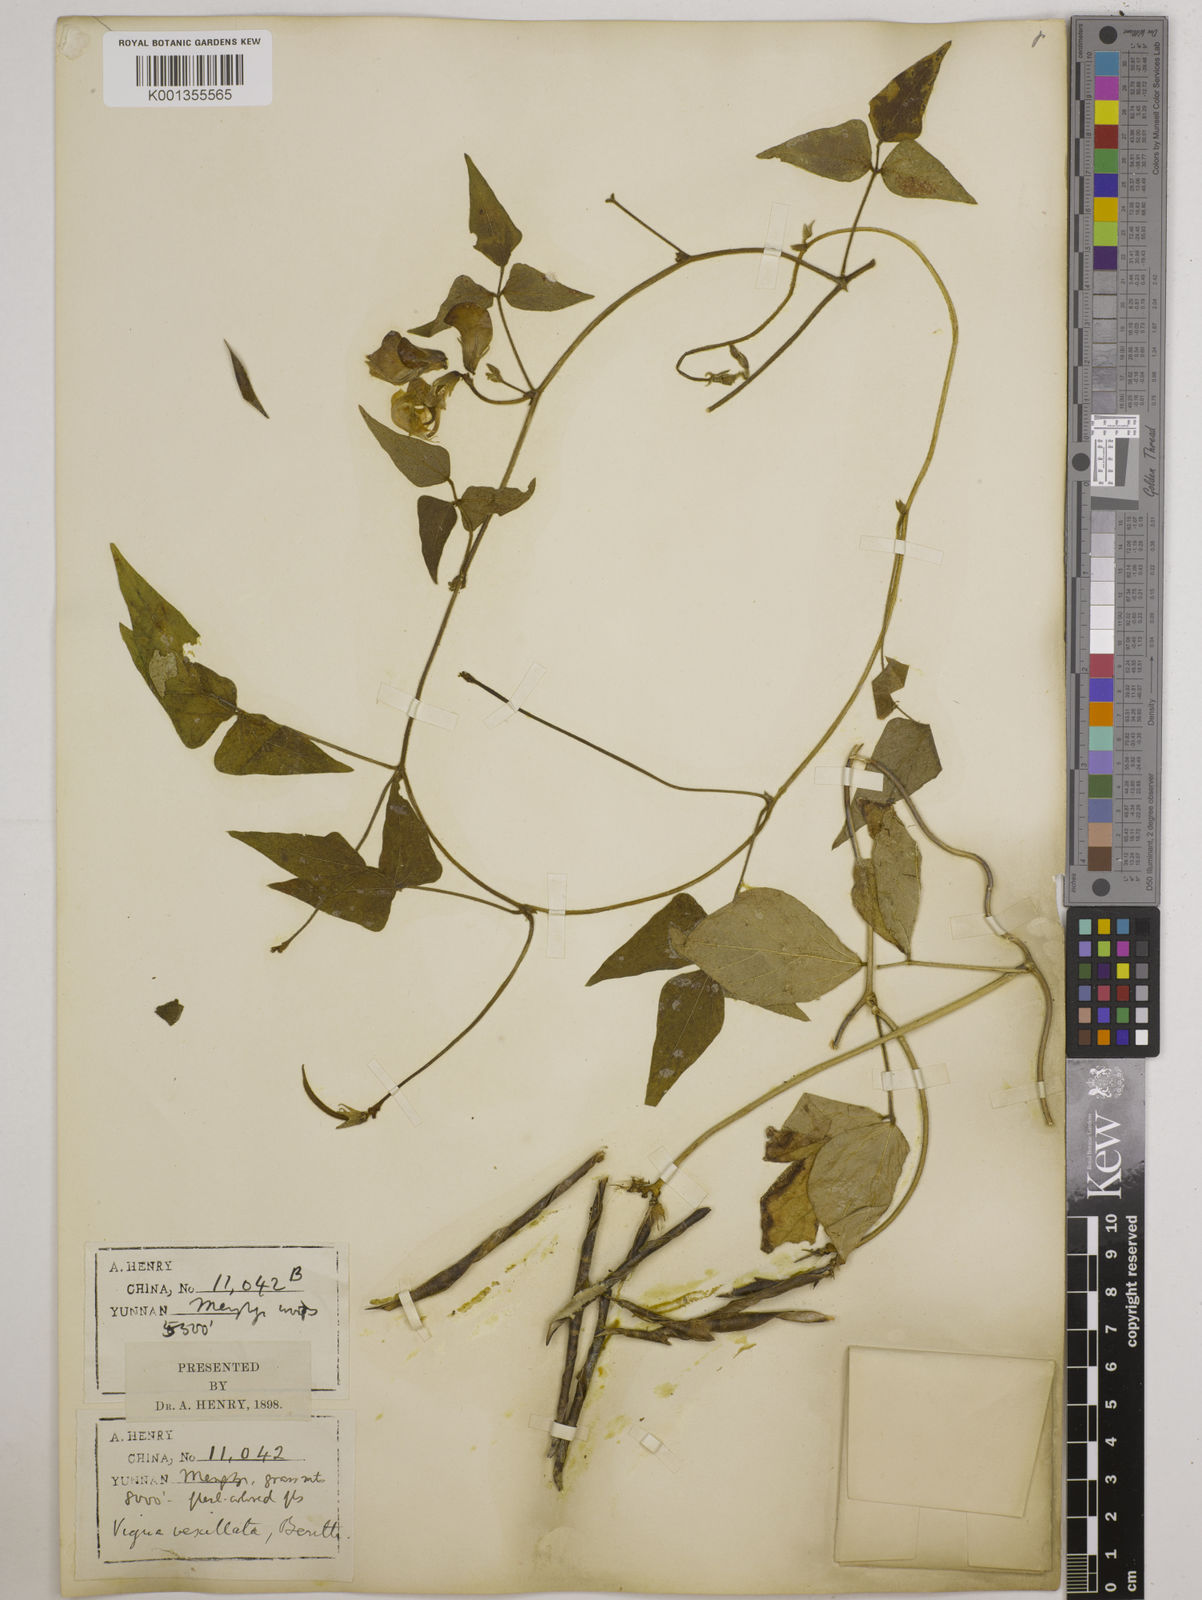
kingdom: Plantae
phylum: Tracheophyta
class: Magnoliopsida
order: Fabales
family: Fabaceae
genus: Vigna
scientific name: Vigna vexillata
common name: Zombi pea
